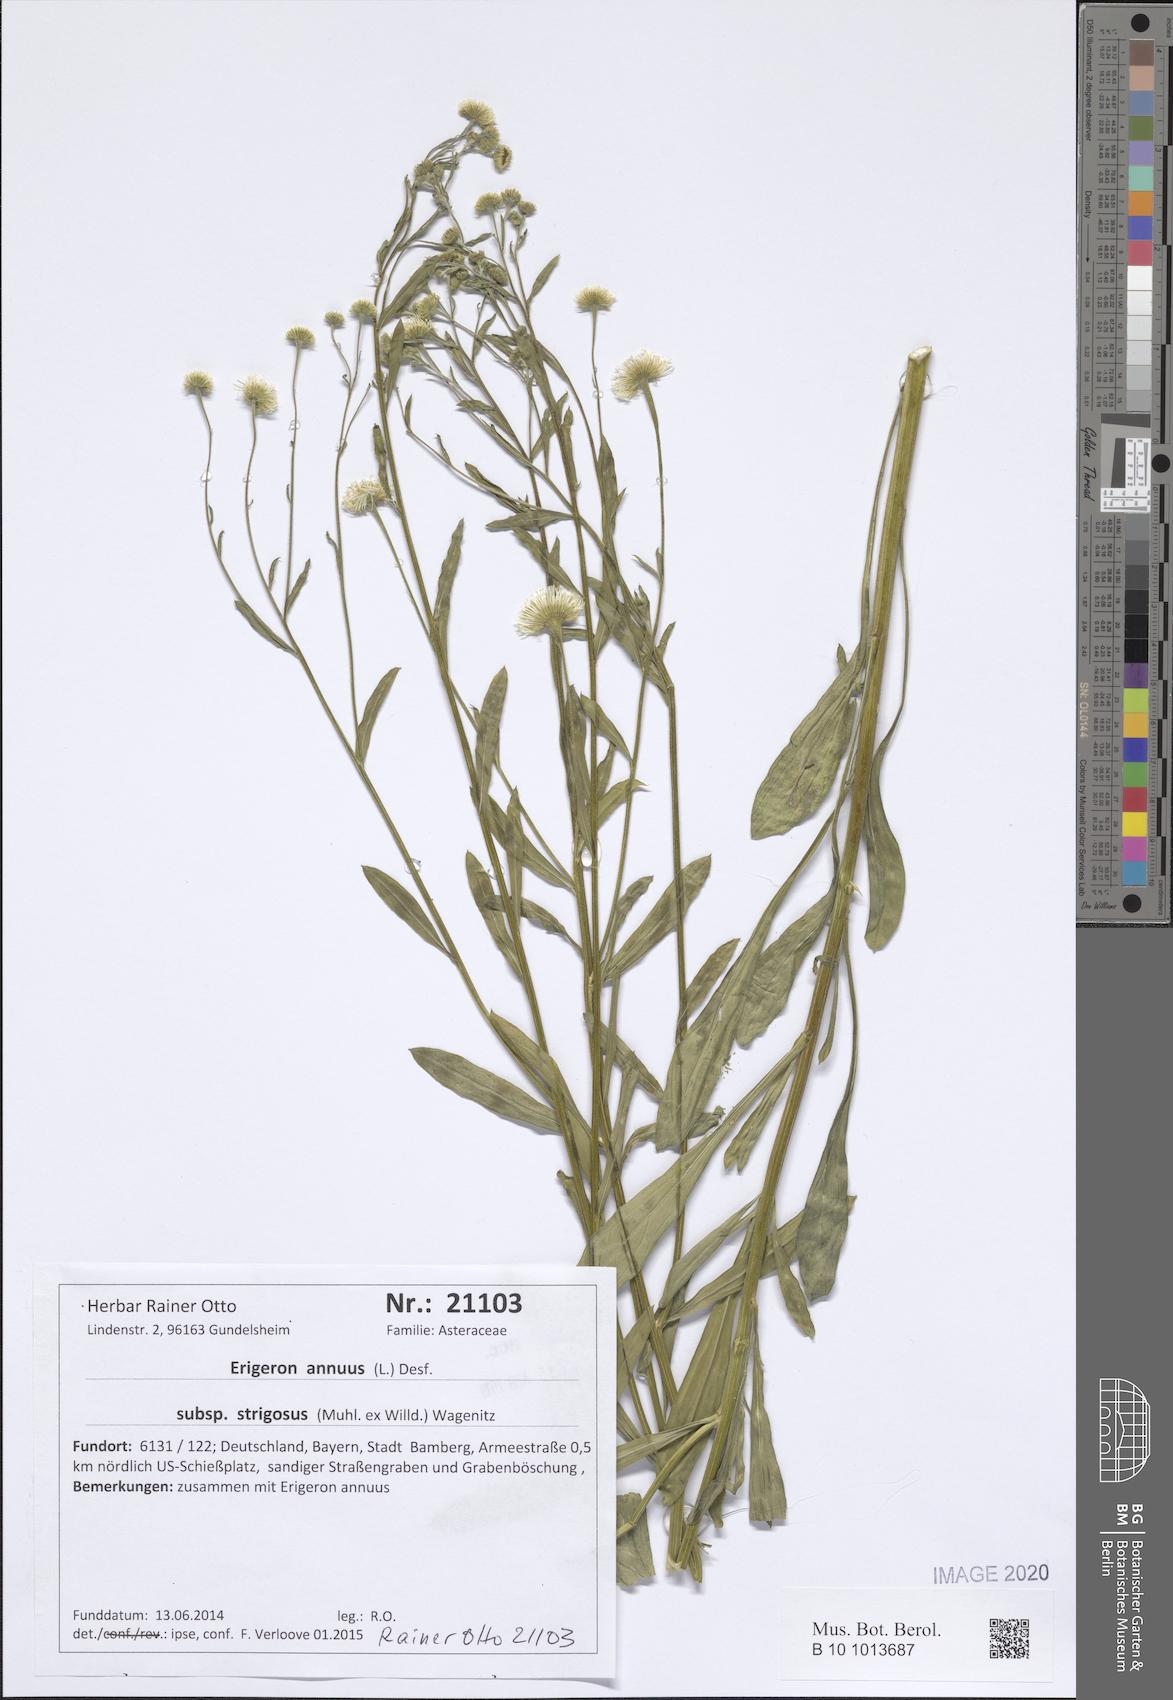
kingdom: Plantae
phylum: Tracheophyta
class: Magnoliopsida
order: Asterales
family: Asteraceae
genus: Erigeron
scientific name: Erigeron strigosus
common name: Common eastern fleabane
